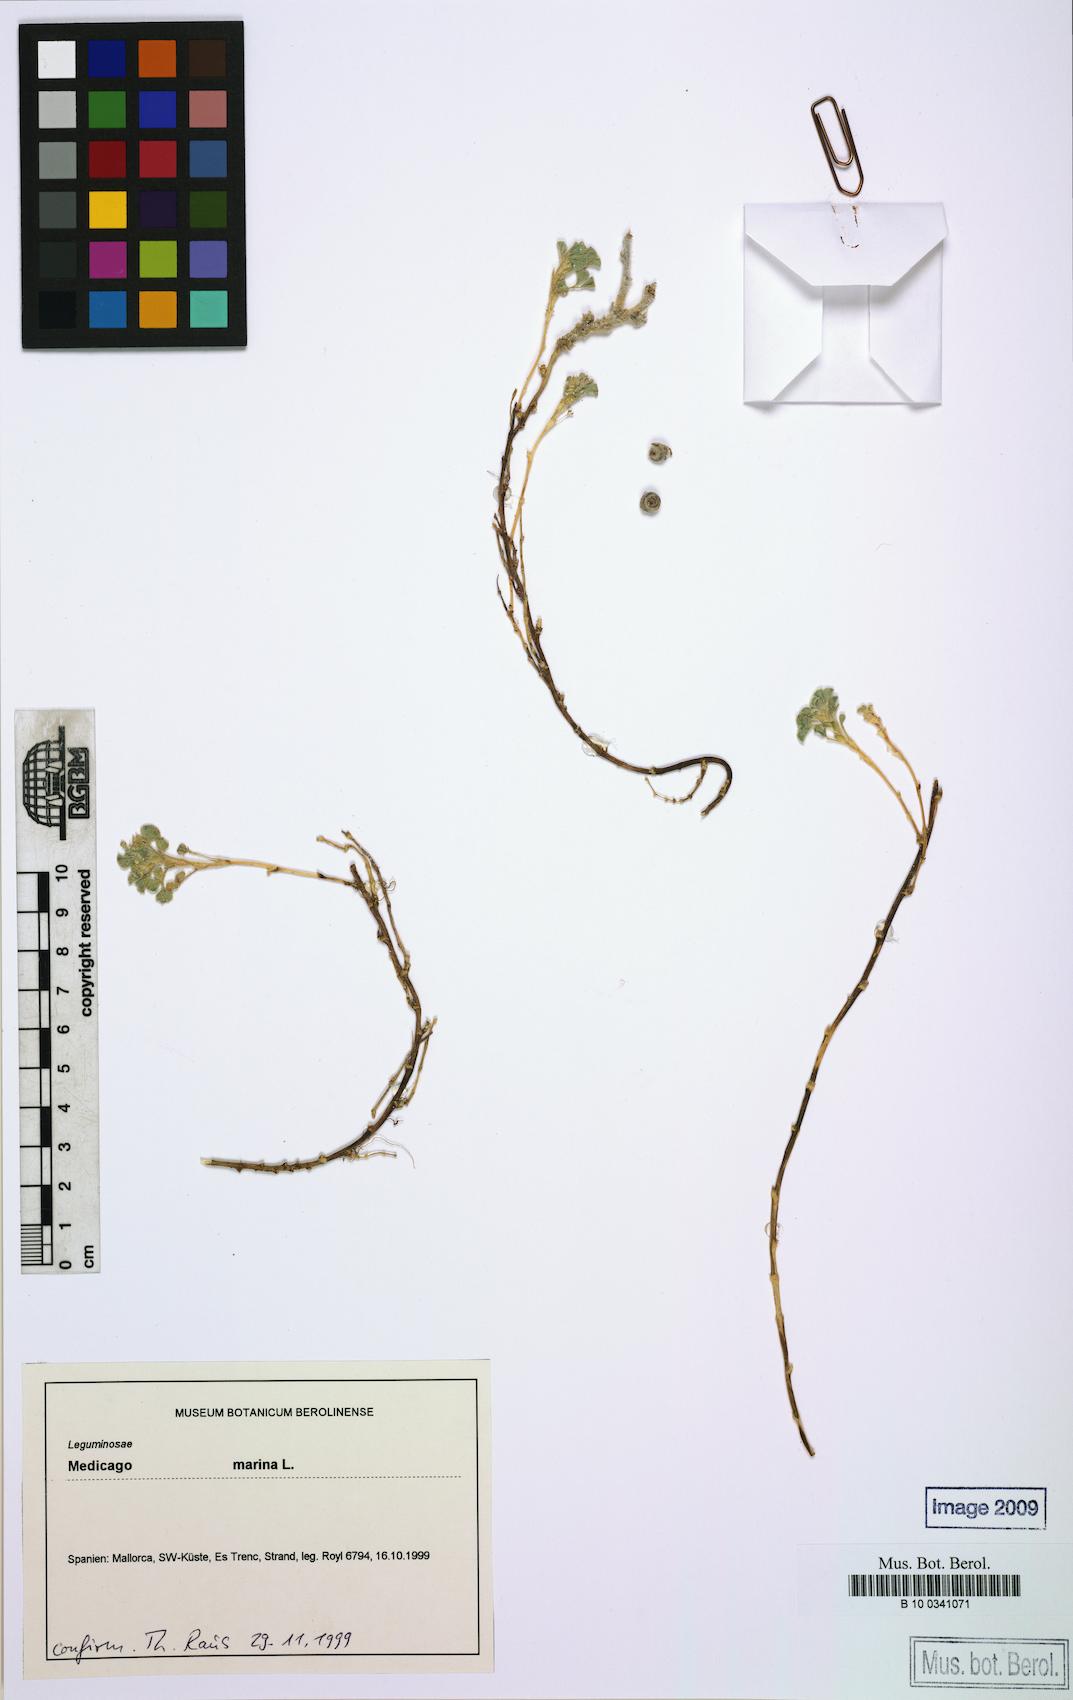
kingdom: Plantae
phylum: Tracheophyta
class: Magnoliopsida
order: Fabales
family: Fabaceae
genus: Medicago
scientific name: Medicago marina
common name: Sea medick
